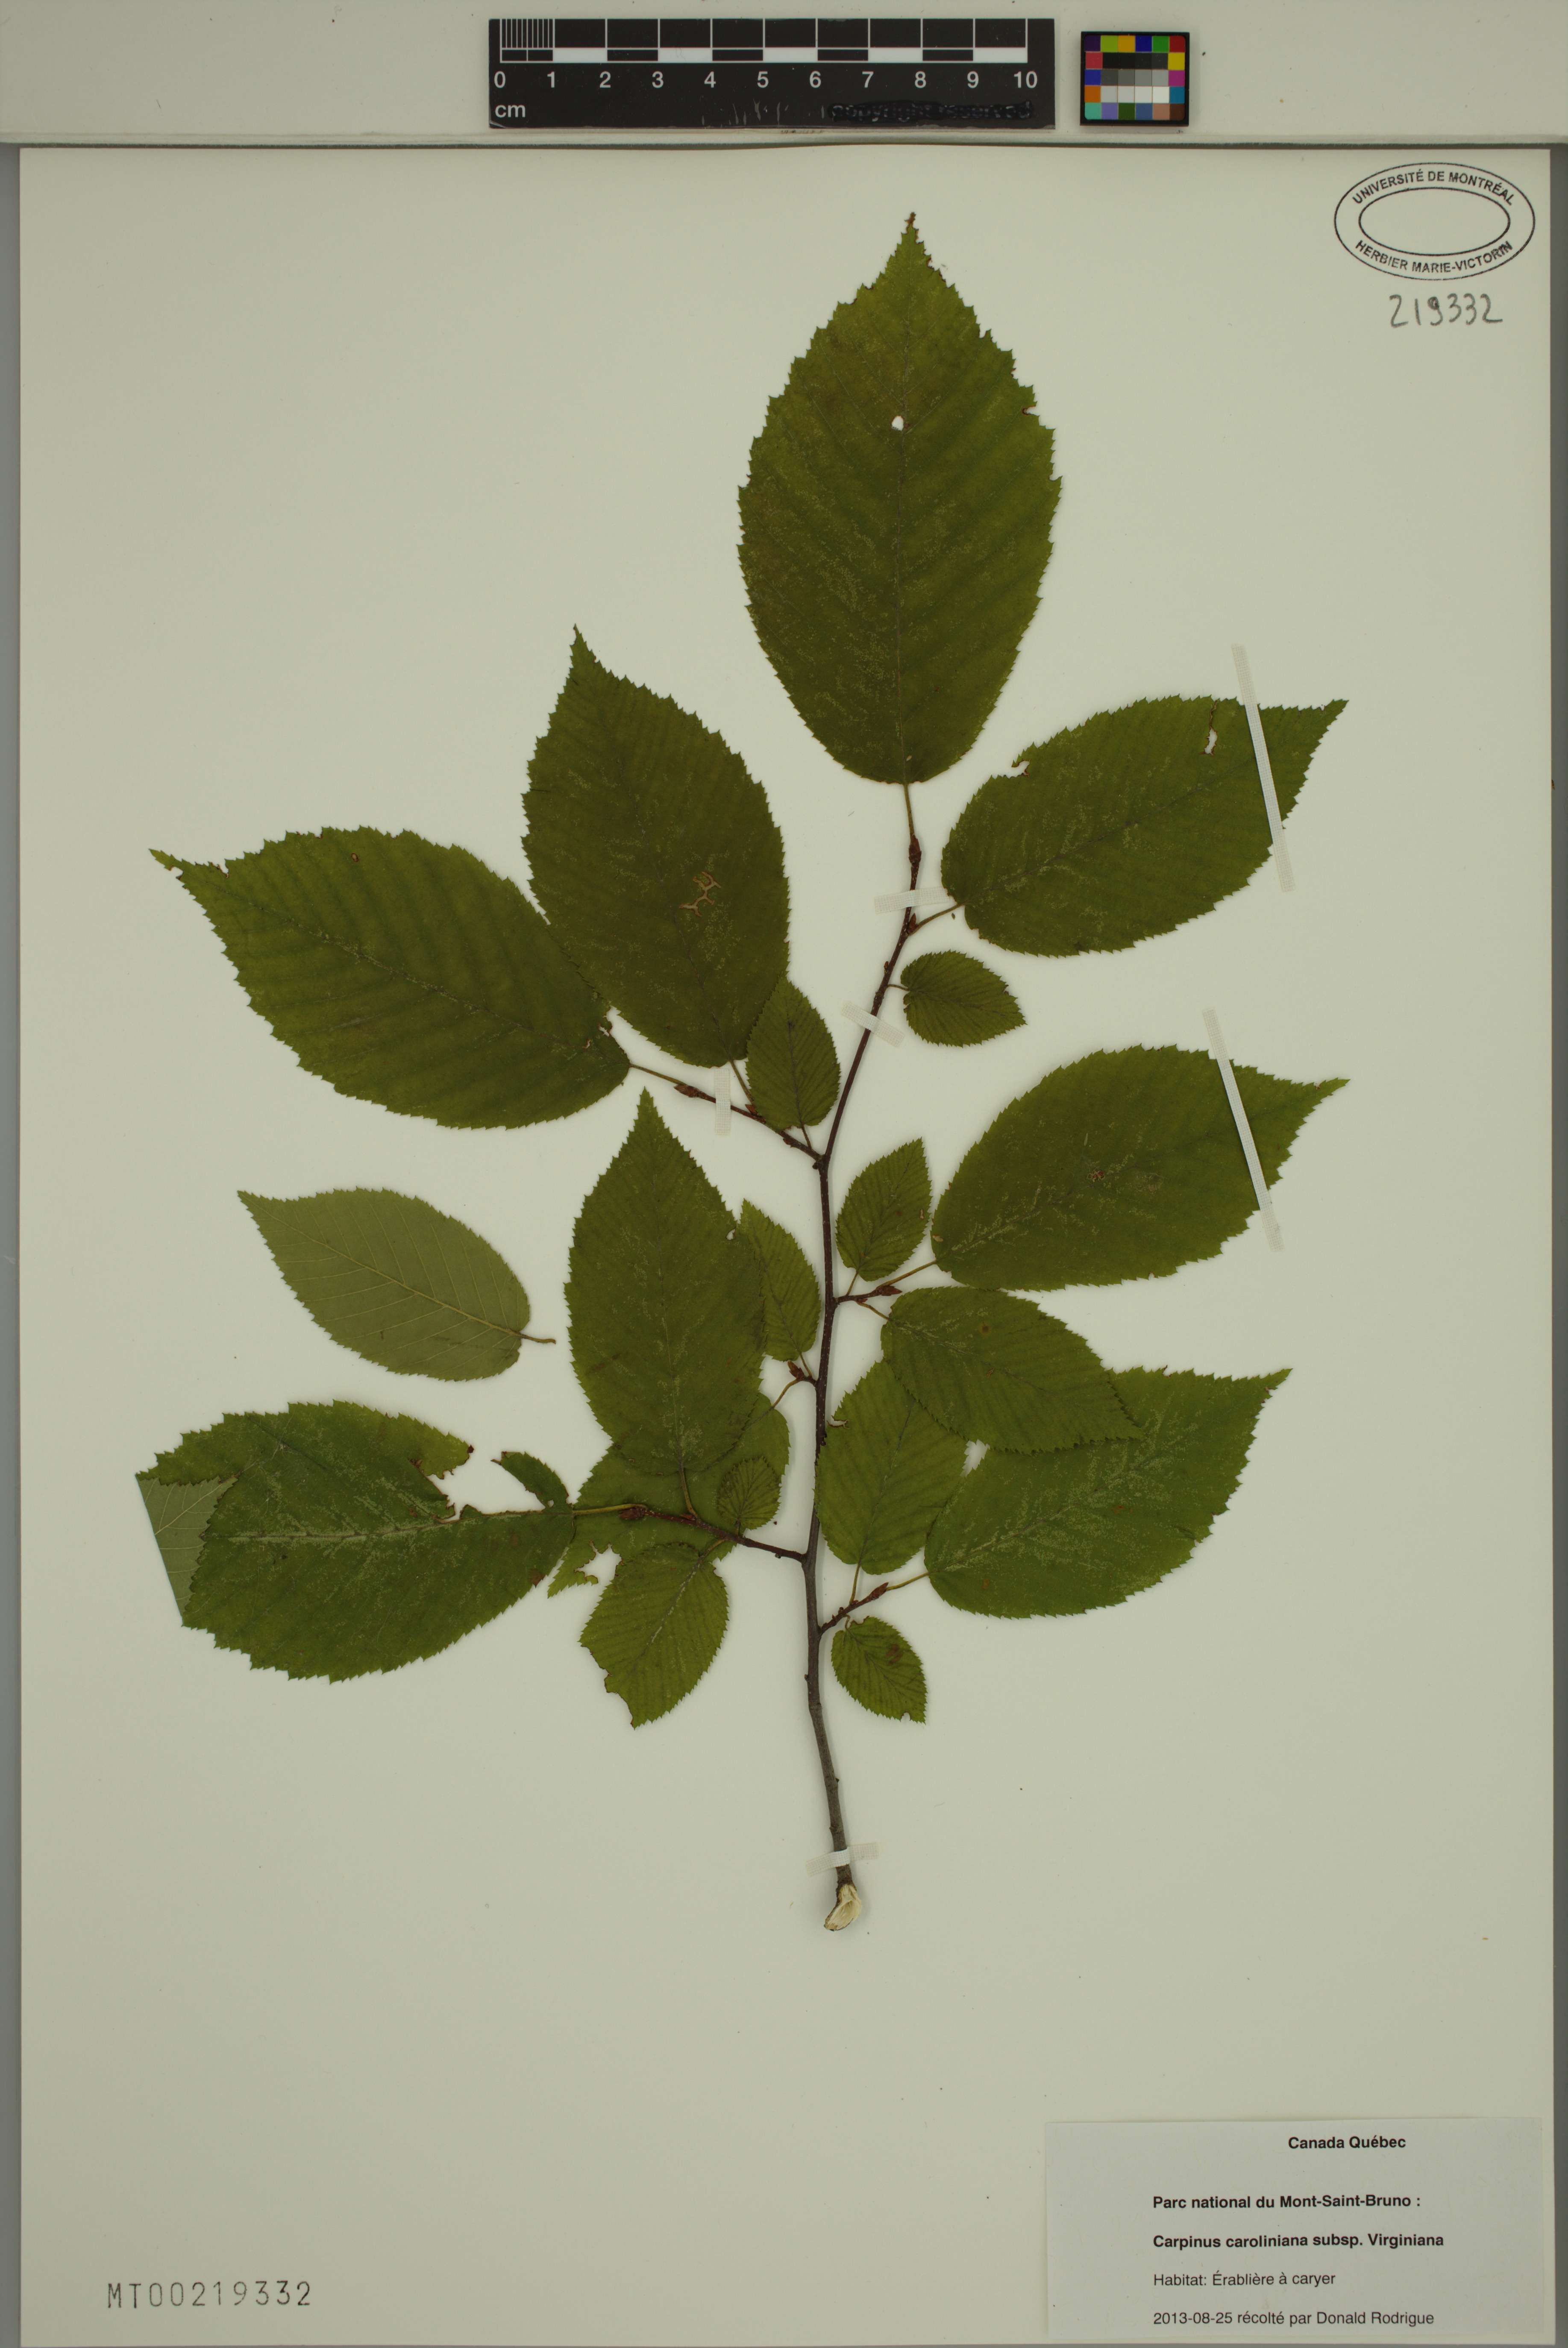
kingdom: Plantae
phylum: Tracheophyta
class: Magnoliopsida
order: Fagales
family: Betulaceae
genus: Carpinus
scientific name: Carpinus caroliniana
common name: American hornbeam
